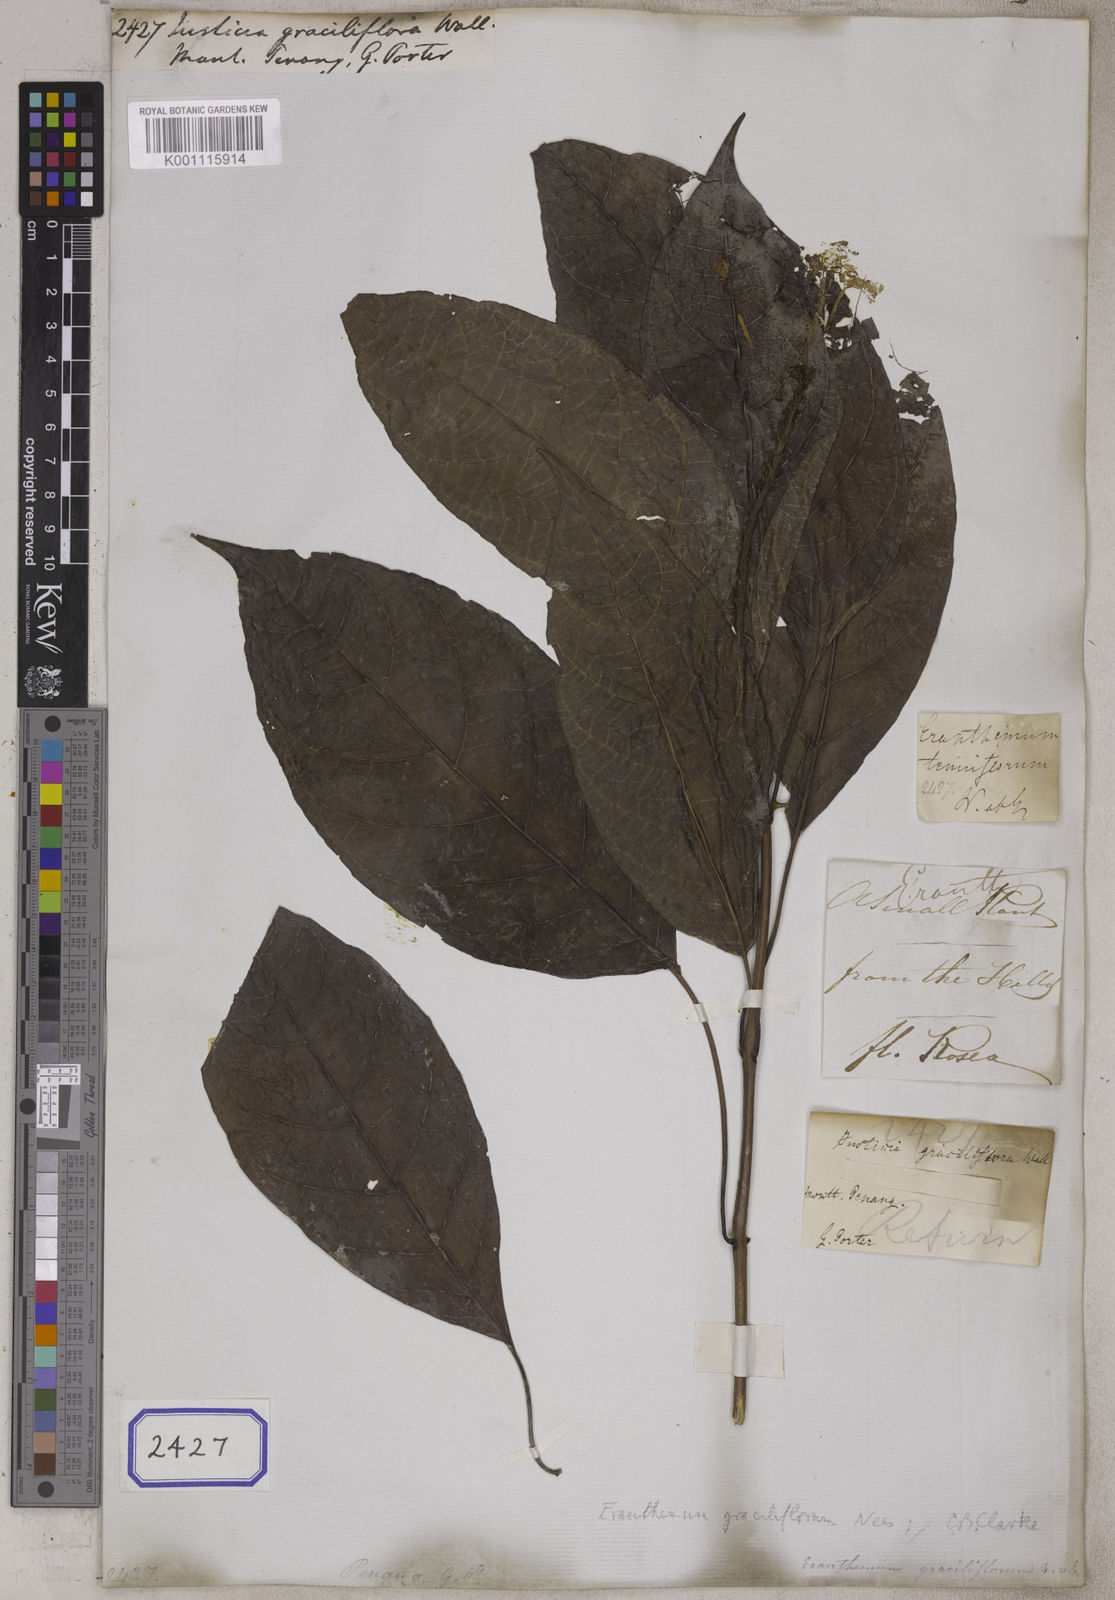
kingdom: Plantae
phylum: Tracheophyta
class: Magnoliopsida
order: Lamiales
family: Acanthaceae
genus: Pseuderanthemum
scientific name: Pseuderanthemum graciliflorum
